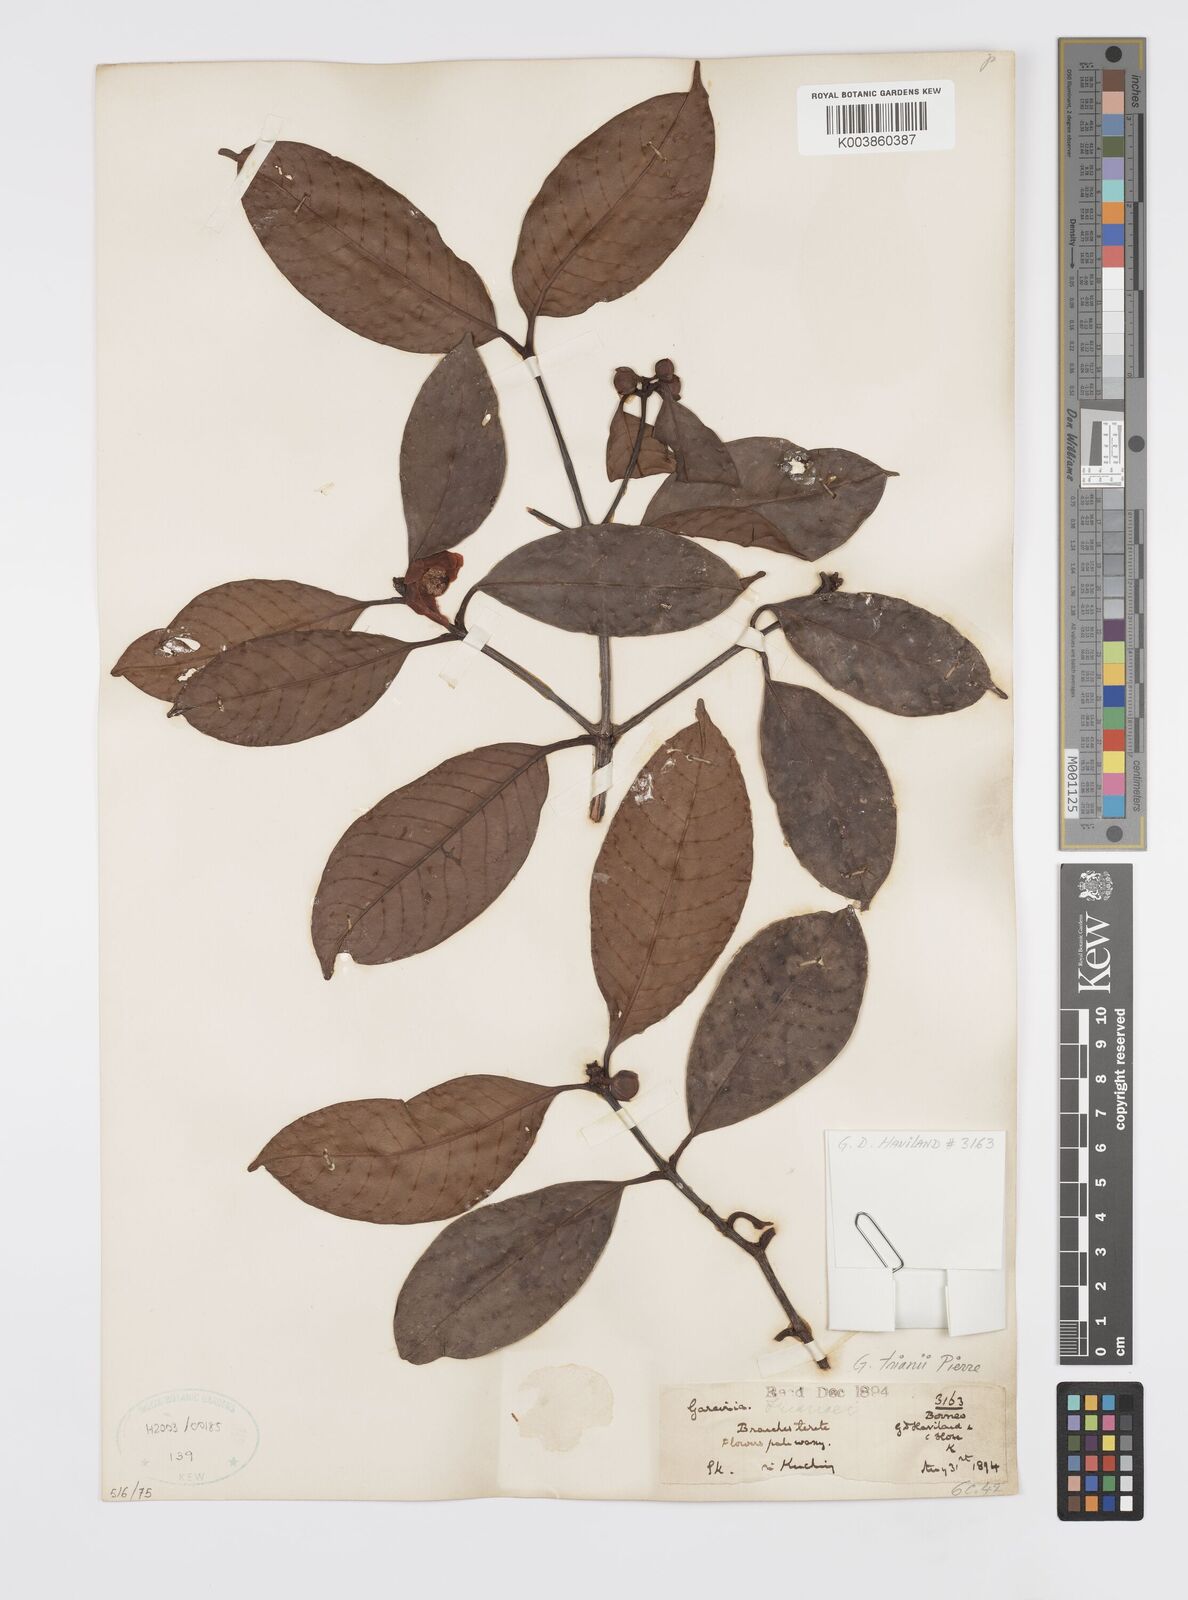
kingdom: Plantae
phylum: Tracheophyta
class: Magnoliopsida
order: Malpighiales
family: Clusiaceae
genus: Garcinia
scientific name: Garcinia trianii
